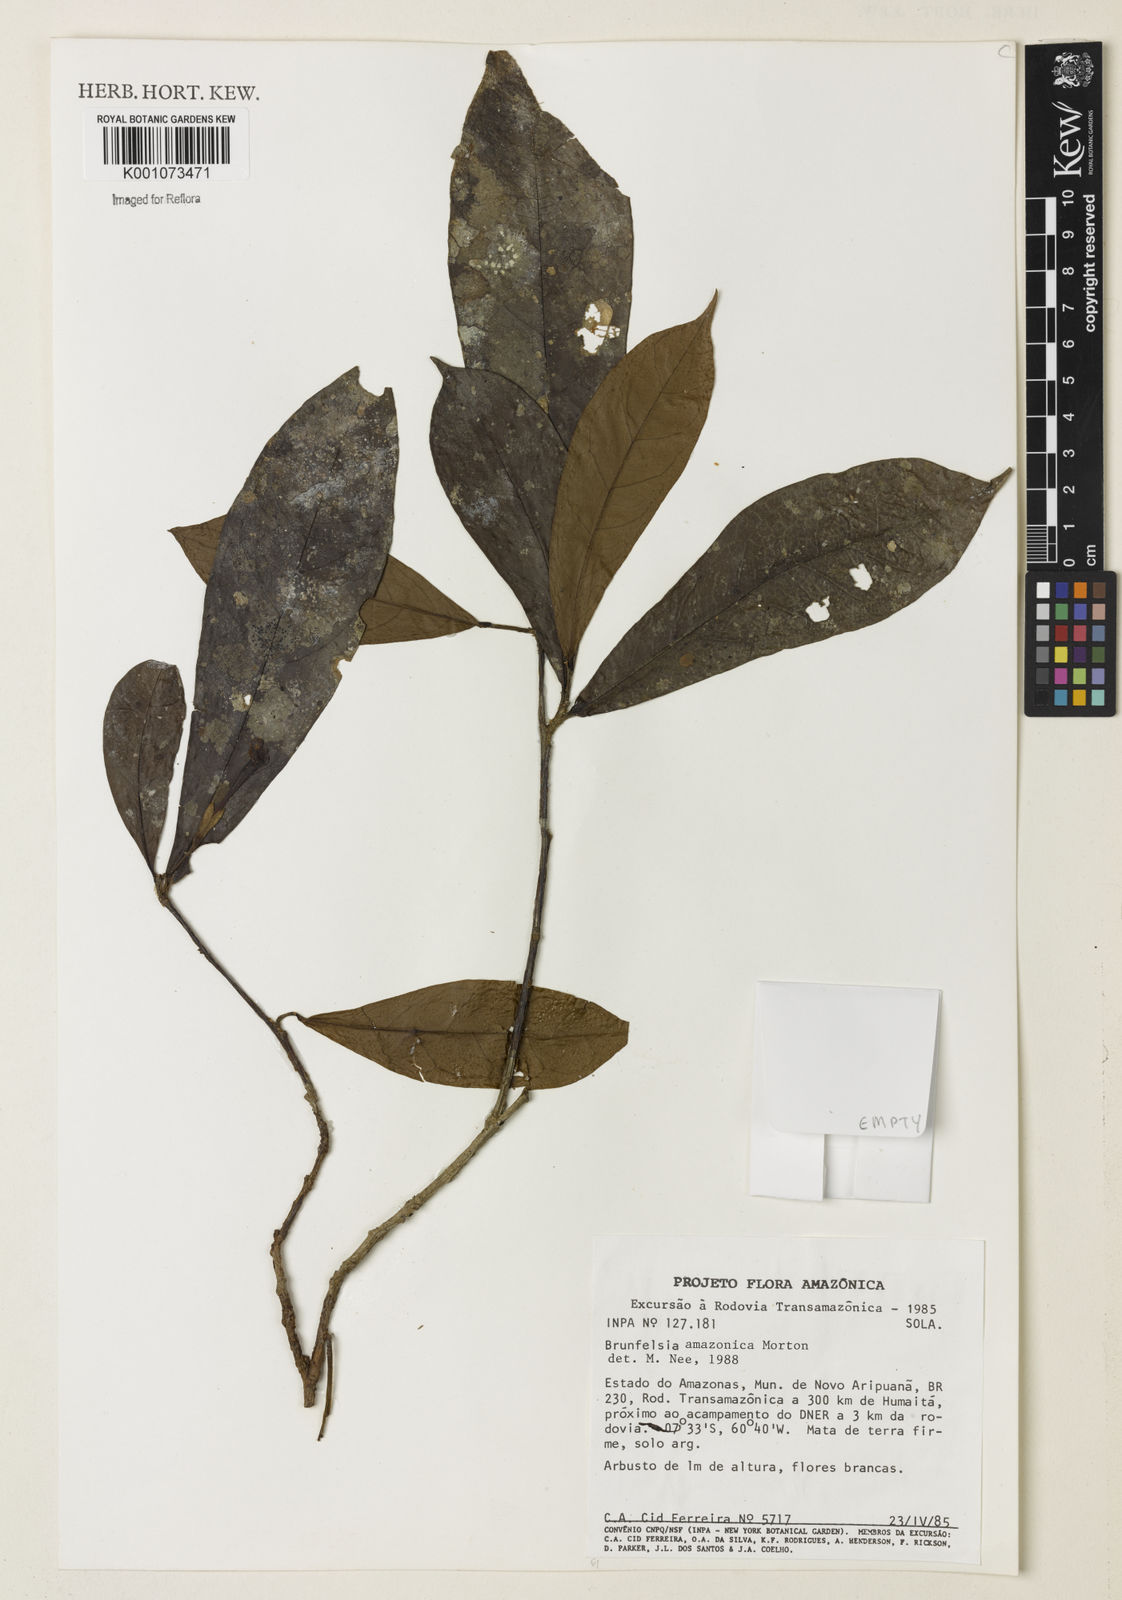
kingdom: Plantae
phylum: Tracheophyta
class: Magnoliopsida
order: Solanales
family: Solanaceae
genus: Brunfelsia
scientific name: Brunfelsia amazonica
